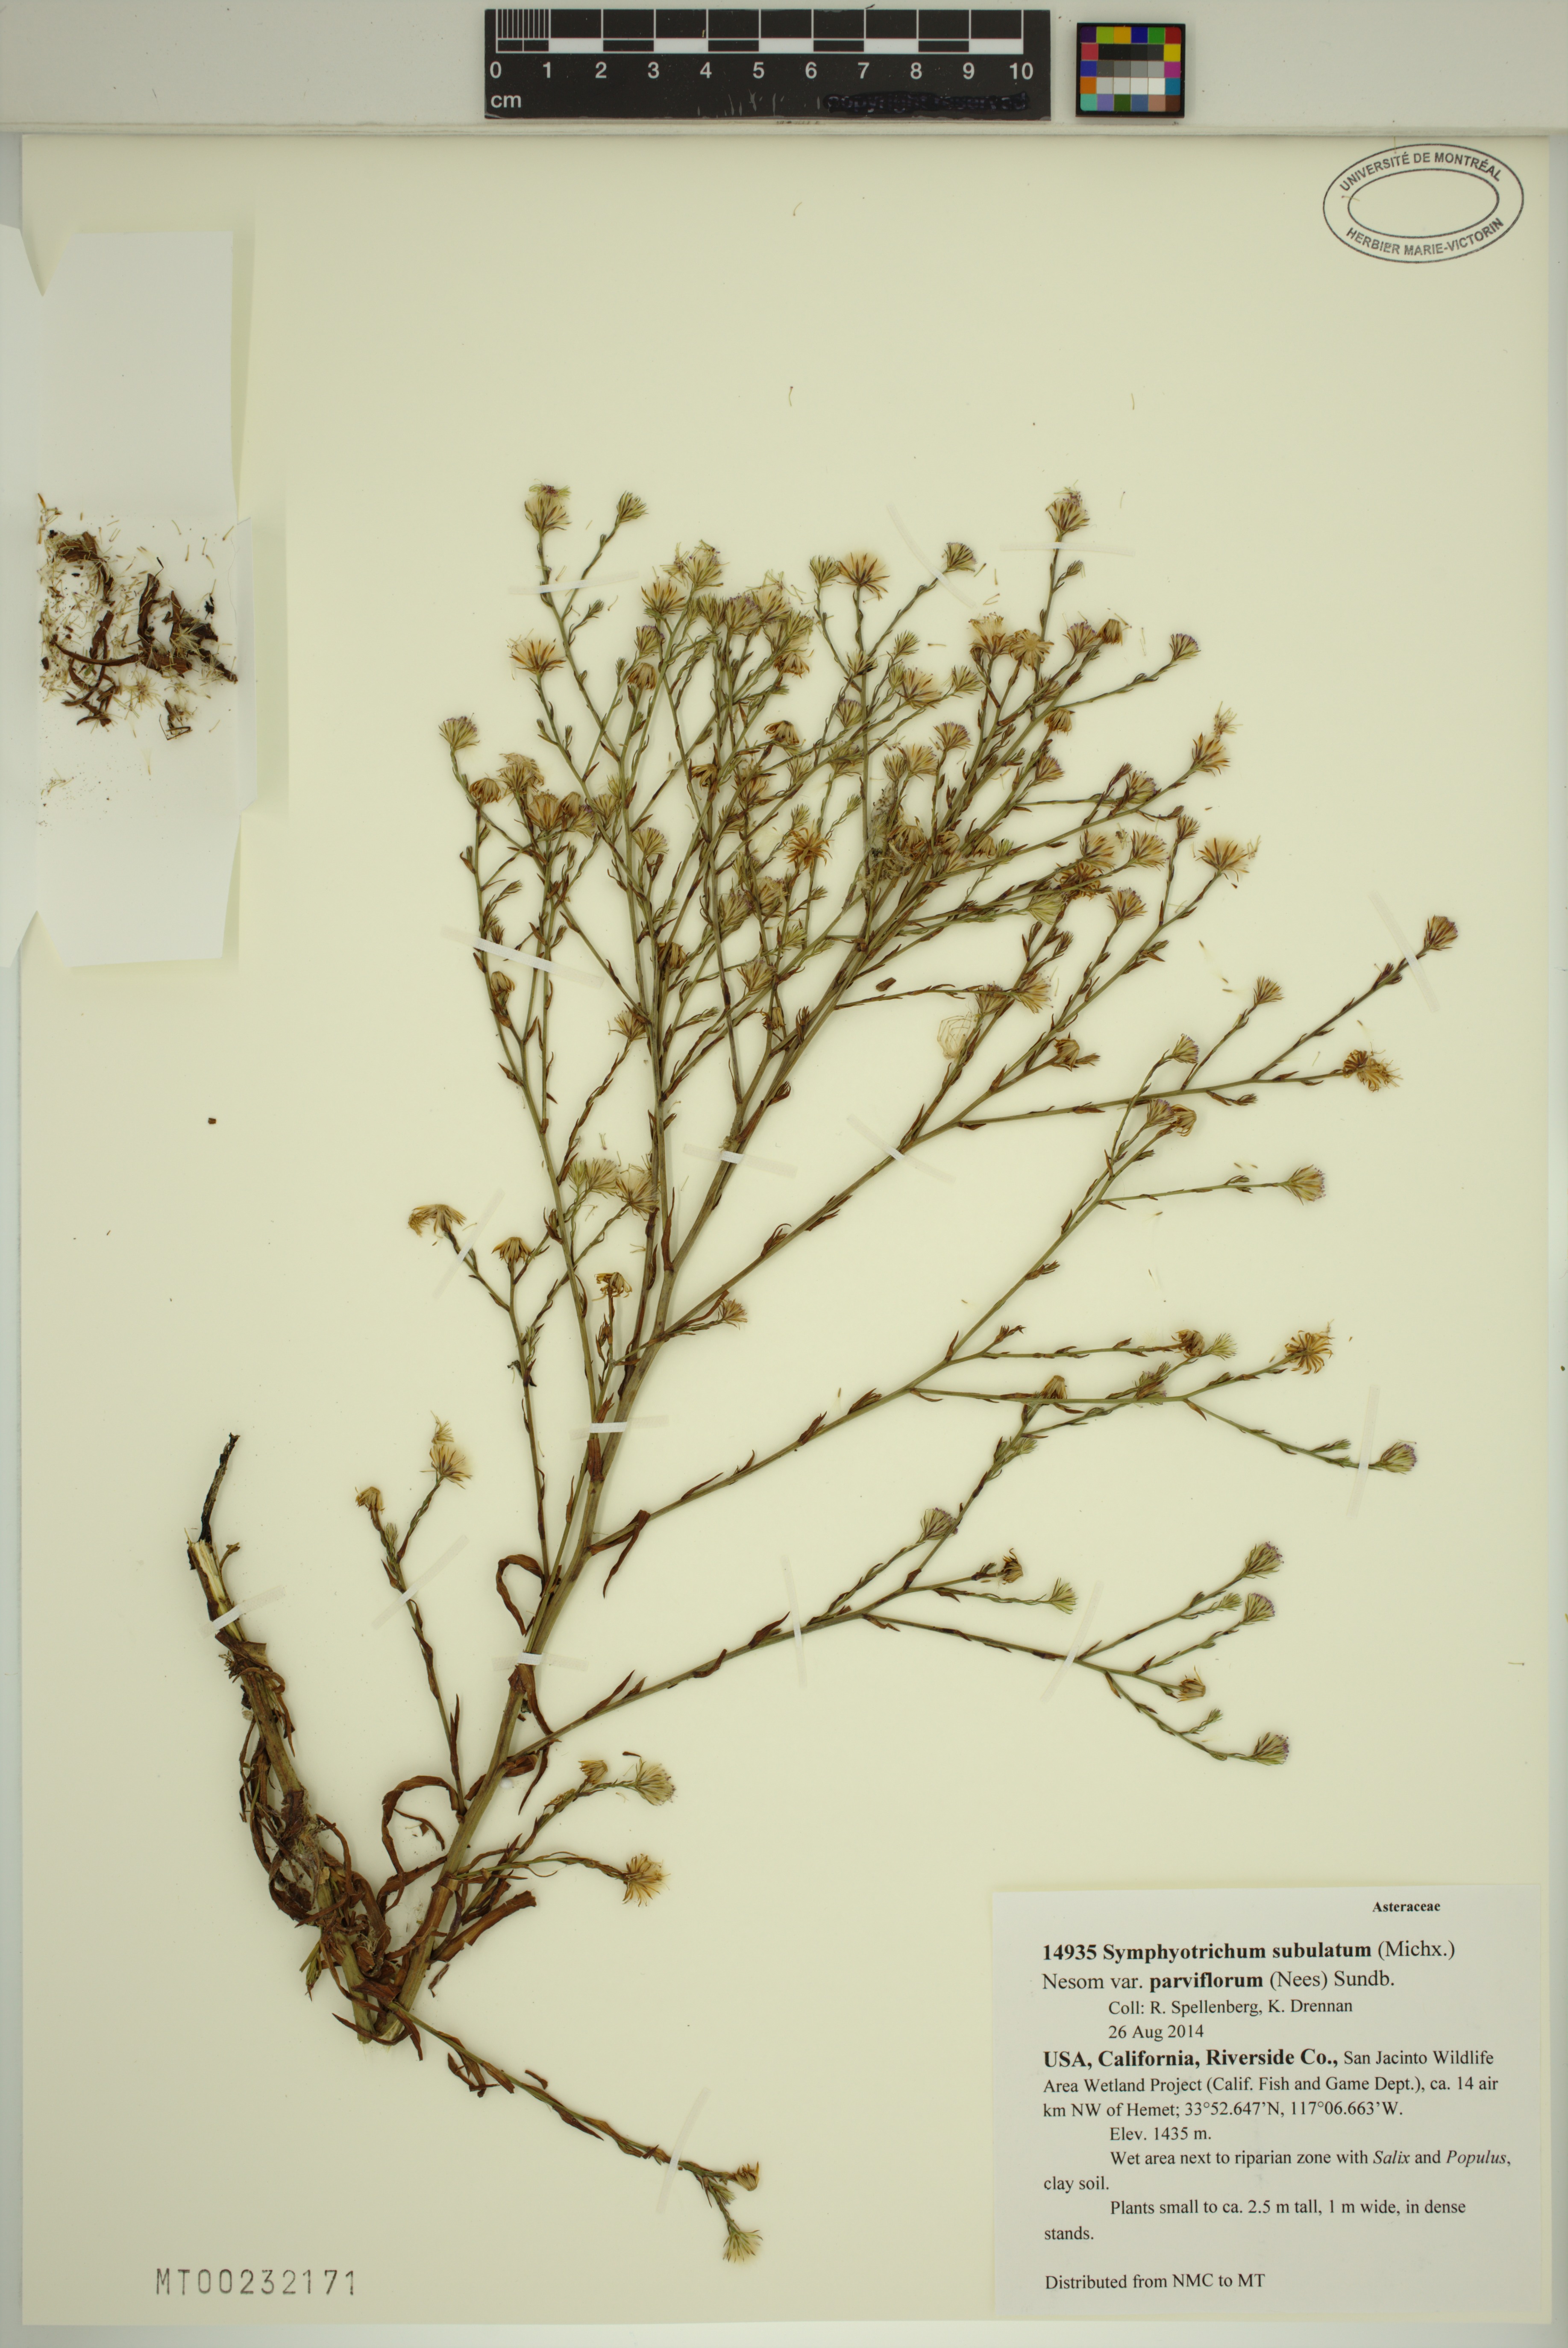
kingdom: Plantae
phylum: Tracheophyta
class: Magnoliopsida
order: Asterales
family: Asteraceae
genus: Symphyotrichum
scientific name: Symphyotrichum expansum
